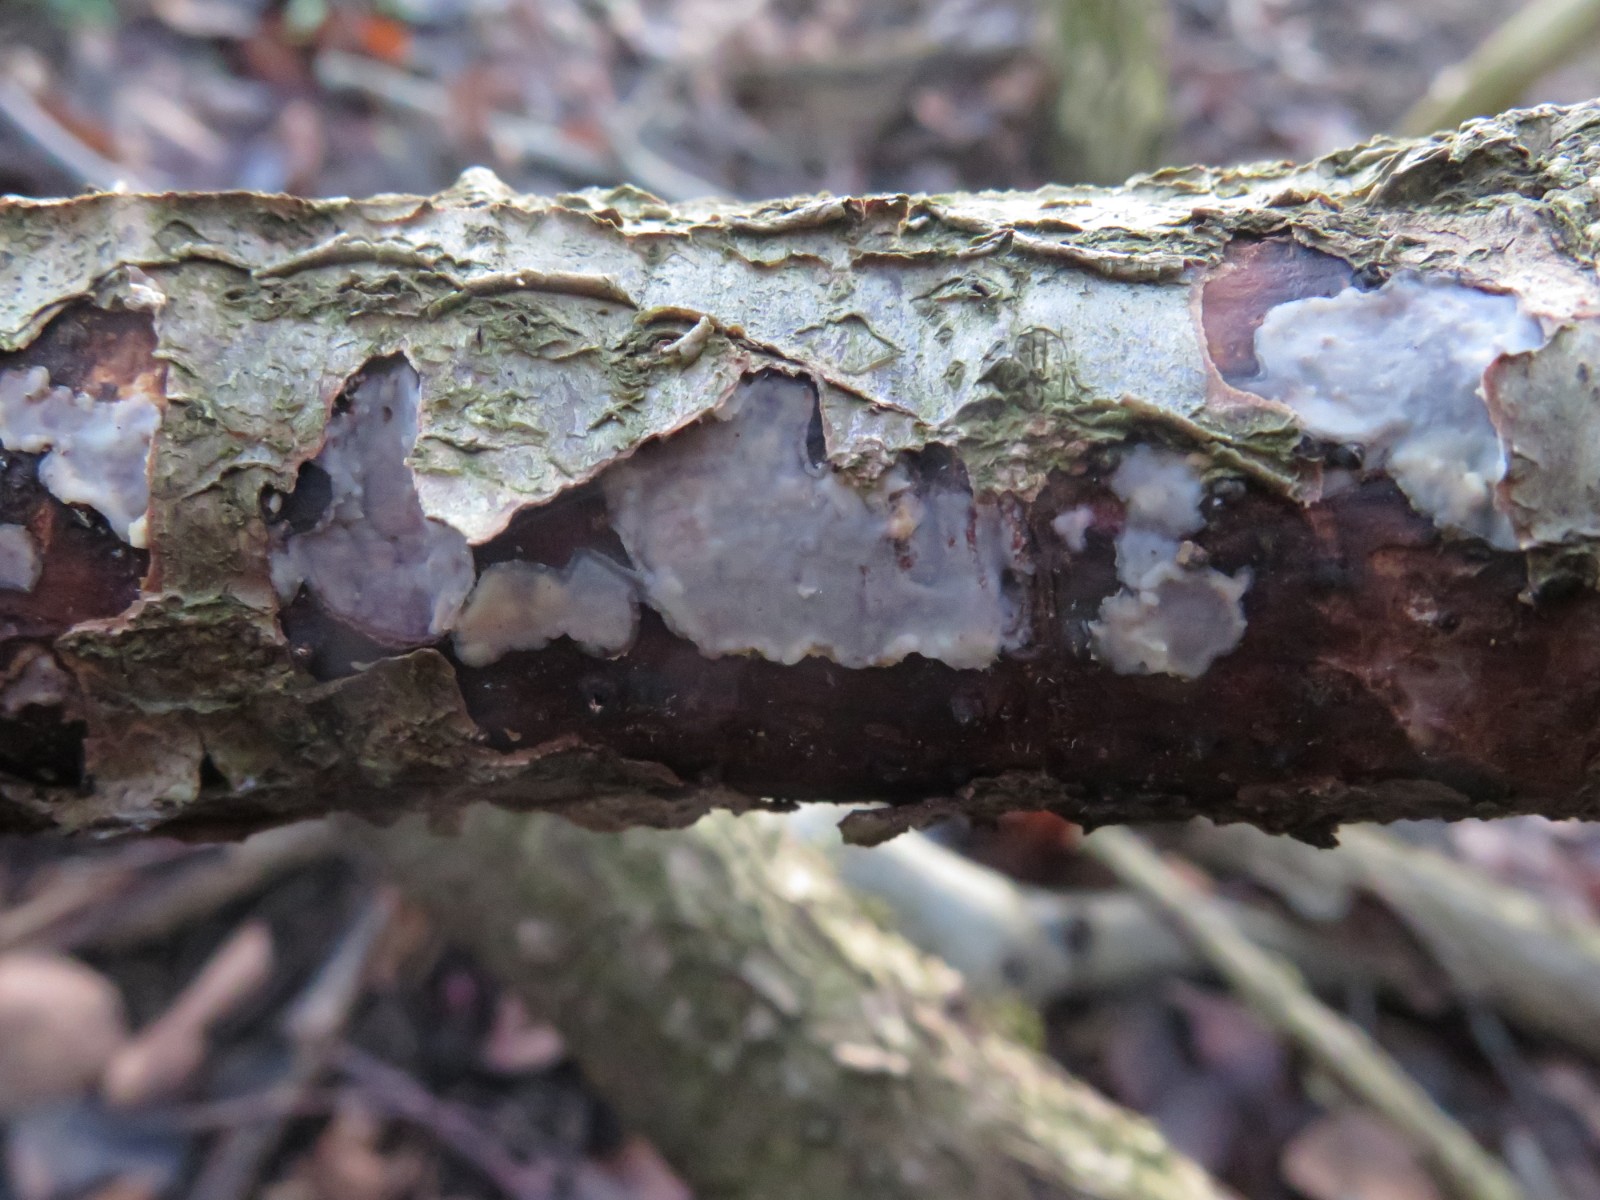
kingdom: Fungi
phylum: Basidiomycota
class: Agaricomycetes
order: Corticiales
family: Corticiaceae
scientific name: Corticiaceae
